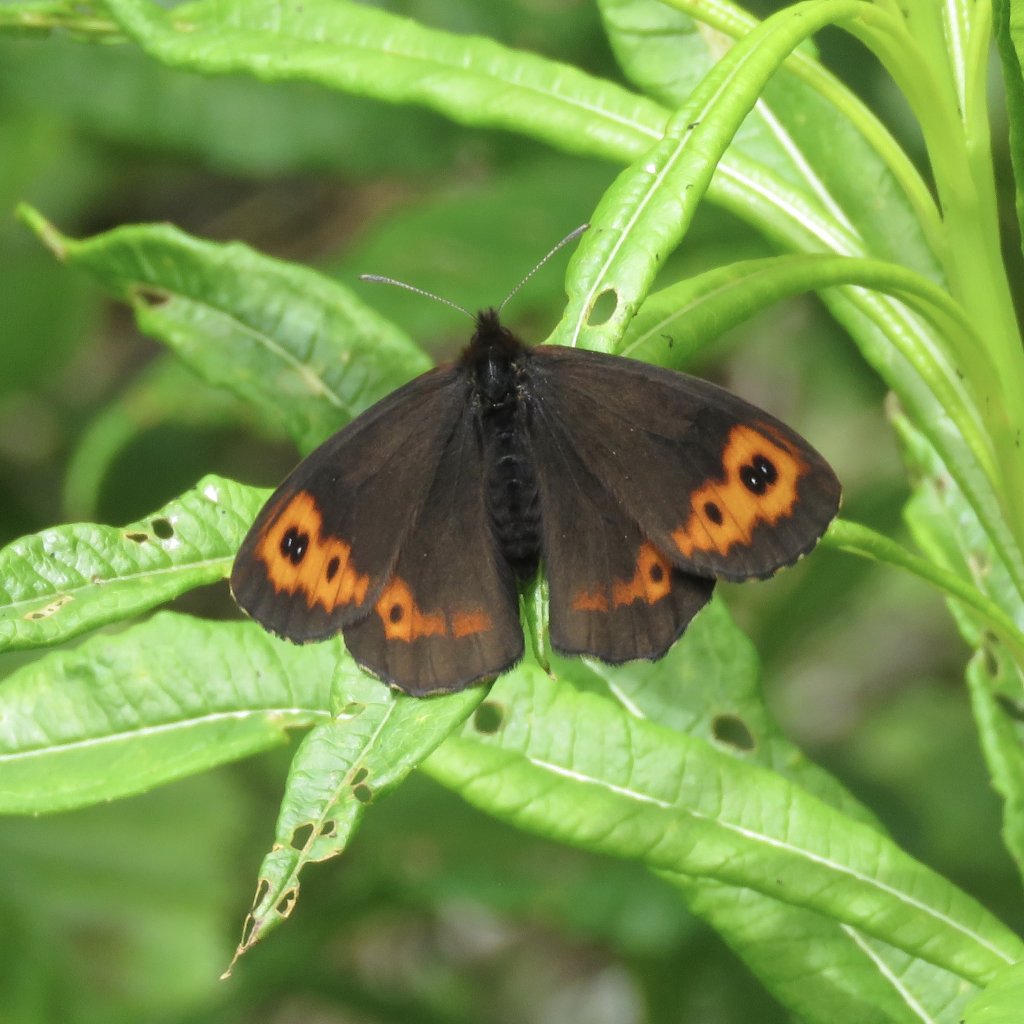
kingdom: Animalia
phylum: Arthropoda
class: Insecta
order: Lepidoptera
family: Nymphalidae
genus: Erebia
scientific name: Erebia vidleri
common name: Vidler's Alpine
